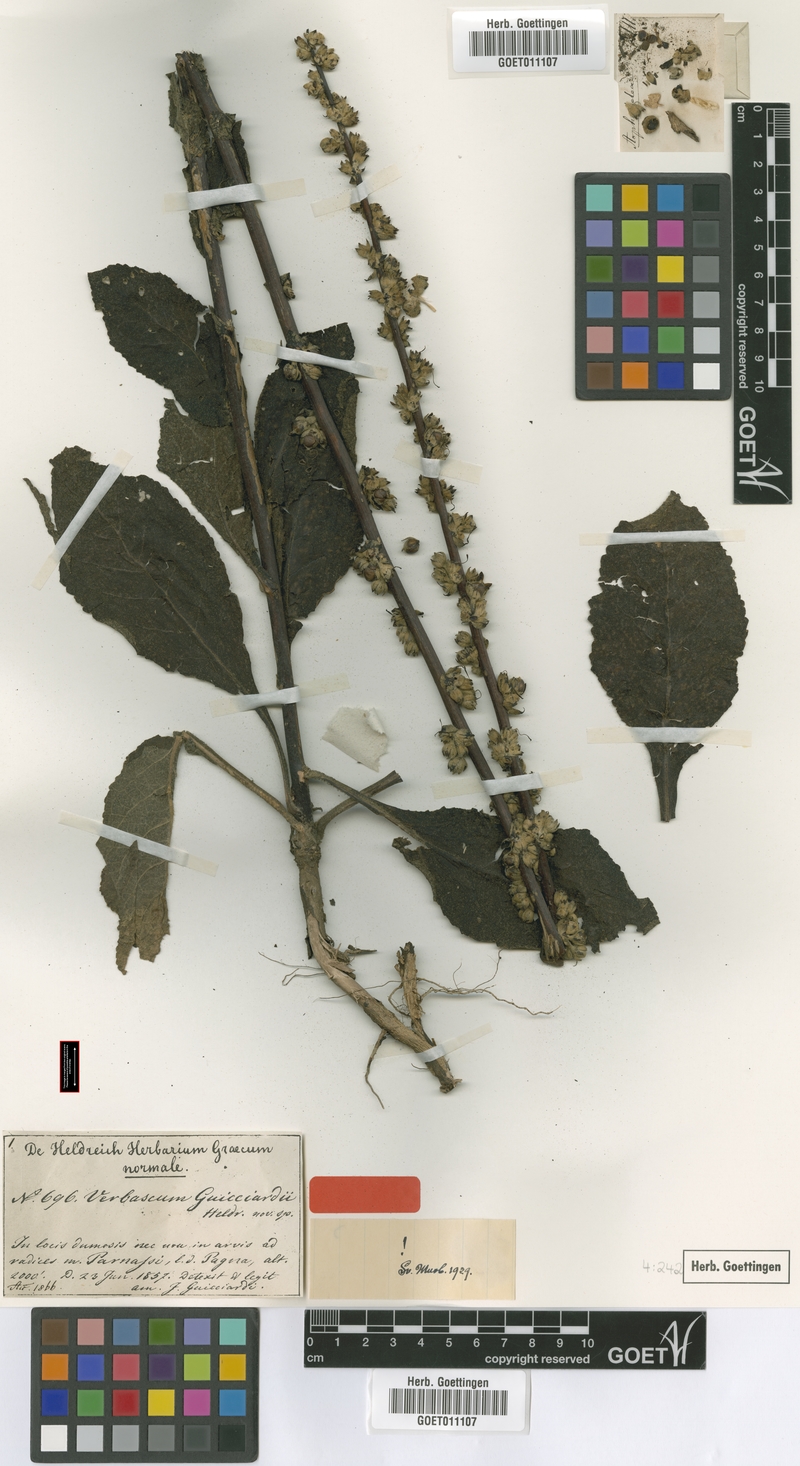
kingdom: Plantae
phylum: Tracheophyta
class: Magnoliopsida
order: Lamiales
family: Scrophulariaceae
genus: Verbascum
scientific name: Verbascum guicciardii
